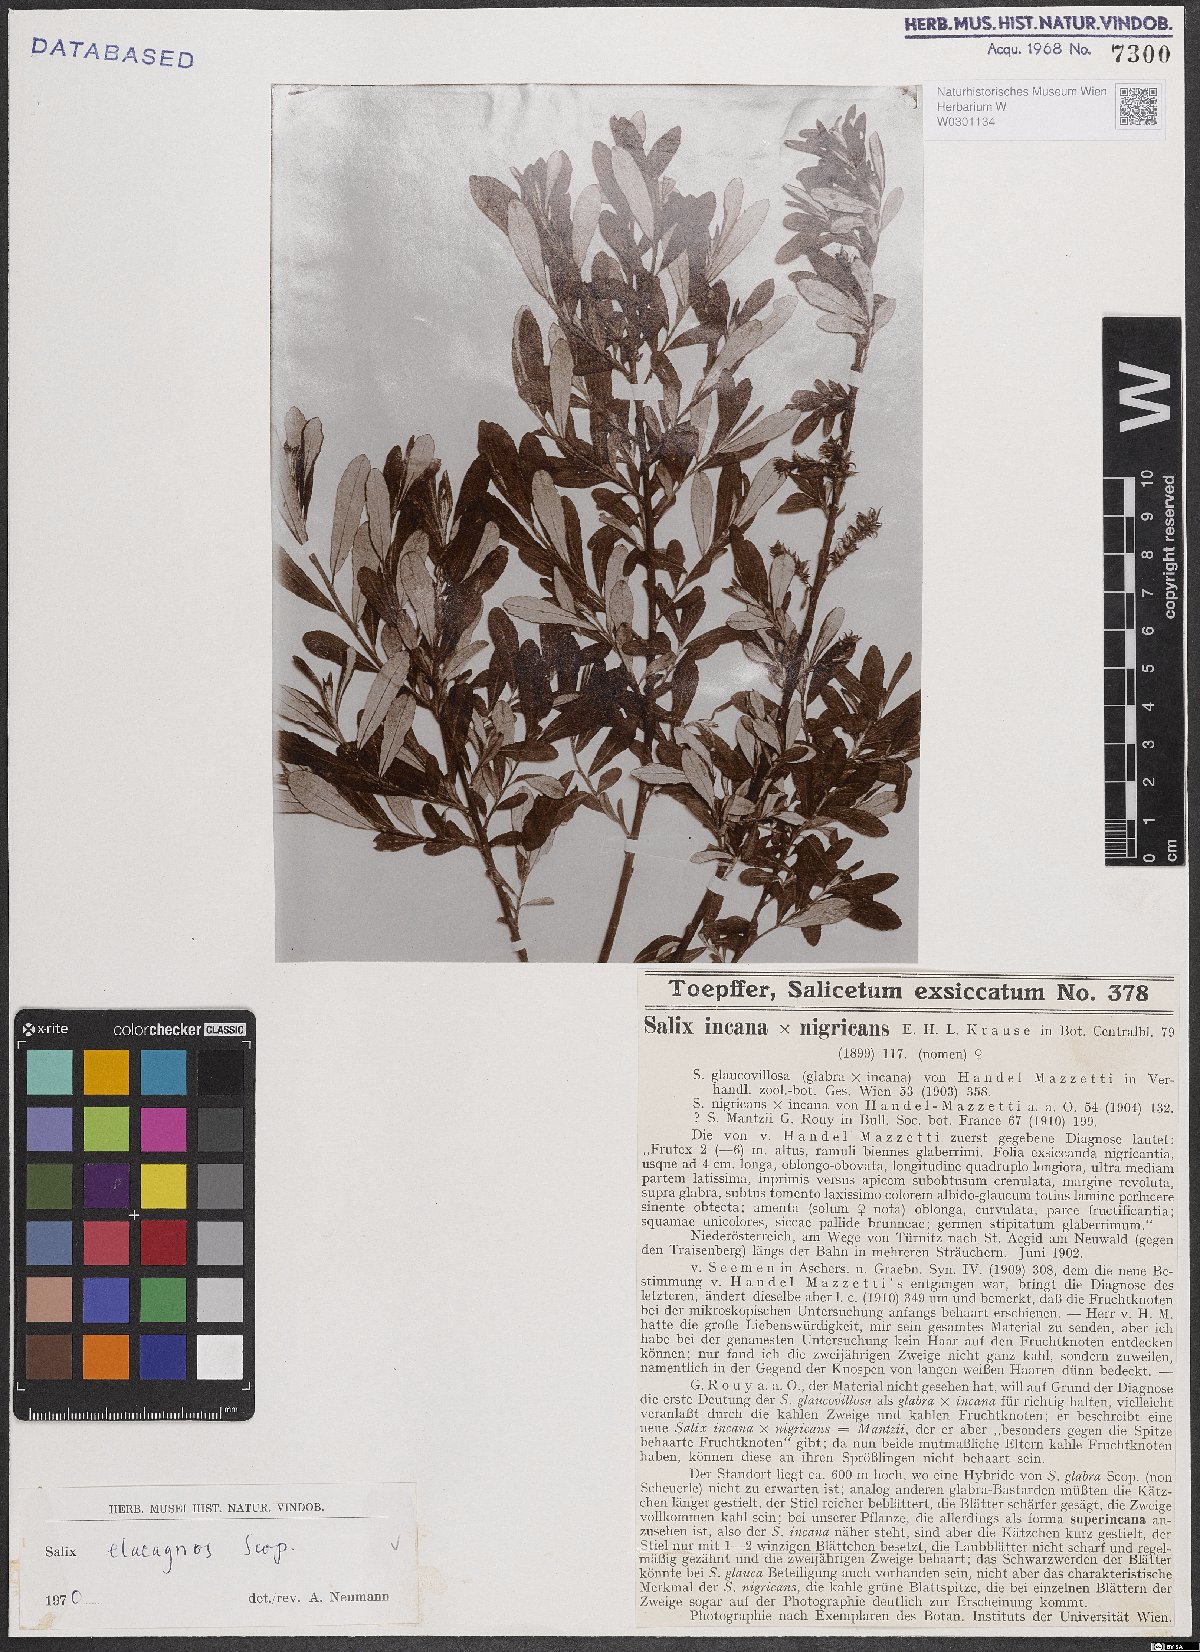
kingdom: Plantae
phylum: Tracheophyta
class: Magnoliopsida
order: Malpighiales
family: Salicaceae
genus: Salix
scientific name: Salix eleagnos
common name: Elaeagnus willow
